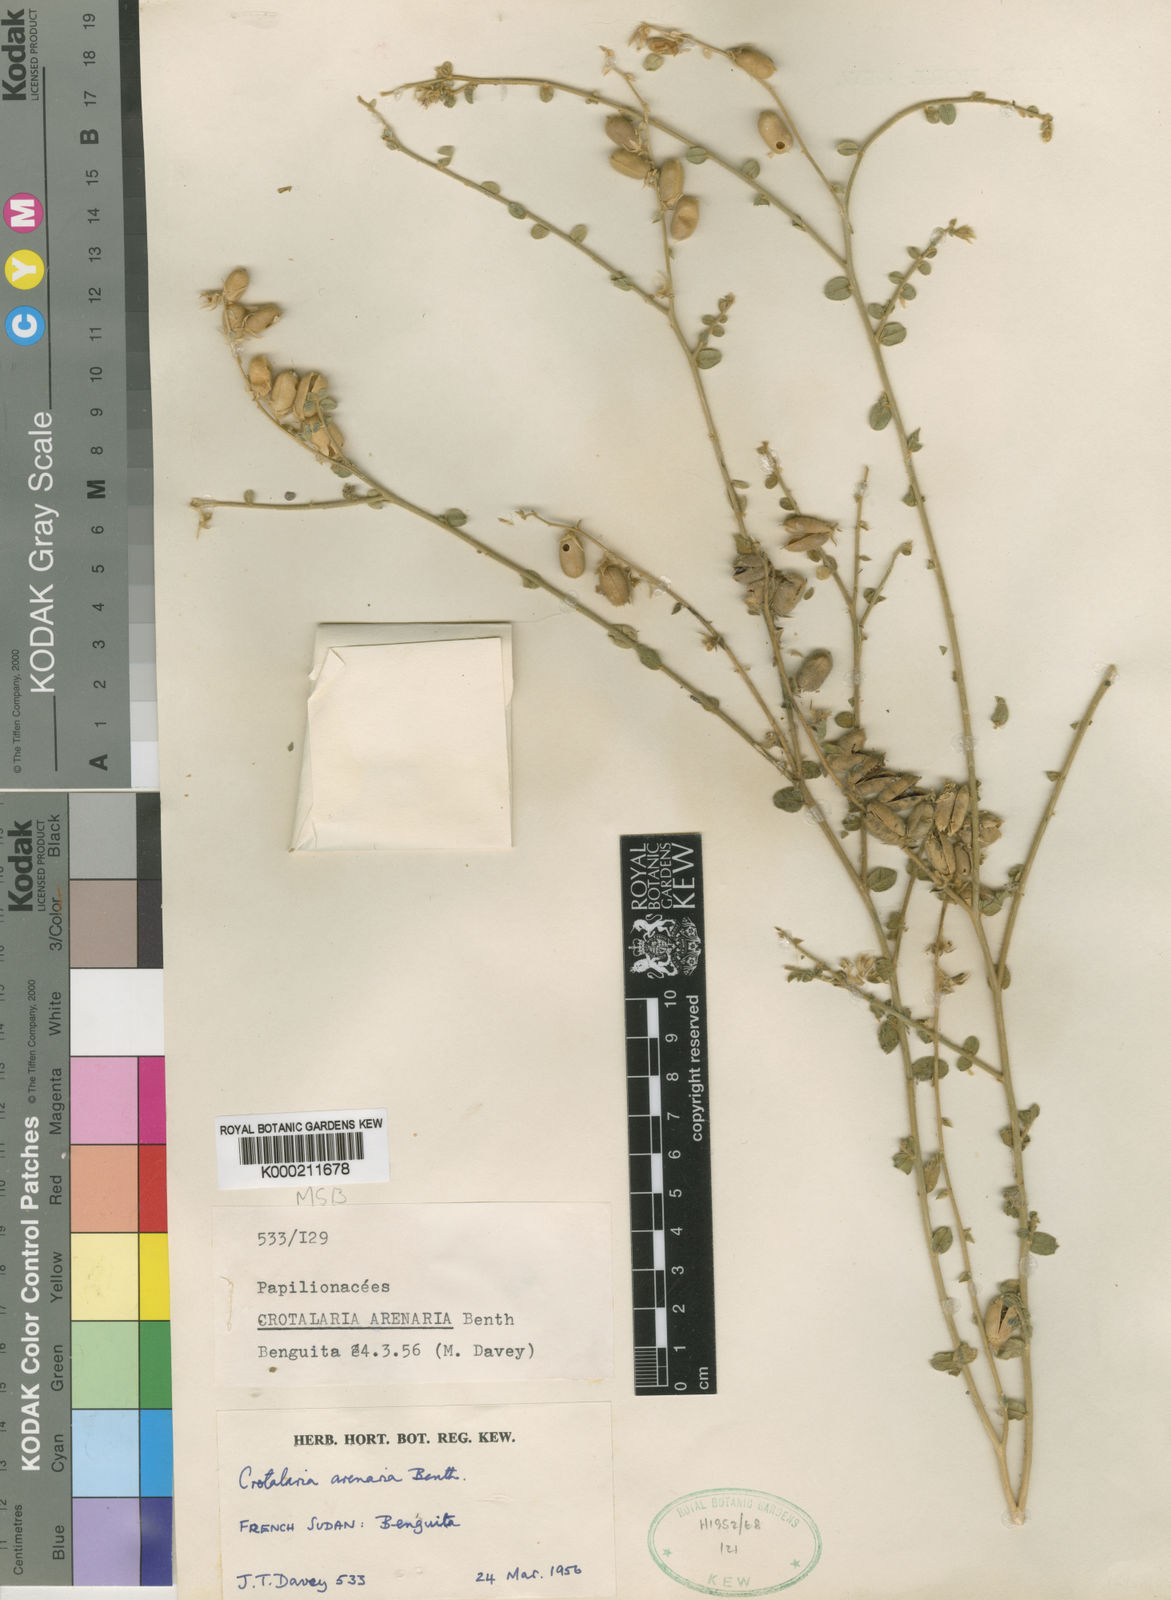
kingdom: Plantae
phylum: Tracheophyta
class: Magnoliopsida
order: Fabales
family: Fabaceae
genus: Crotalaria
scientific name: Crotalaria arenaria
